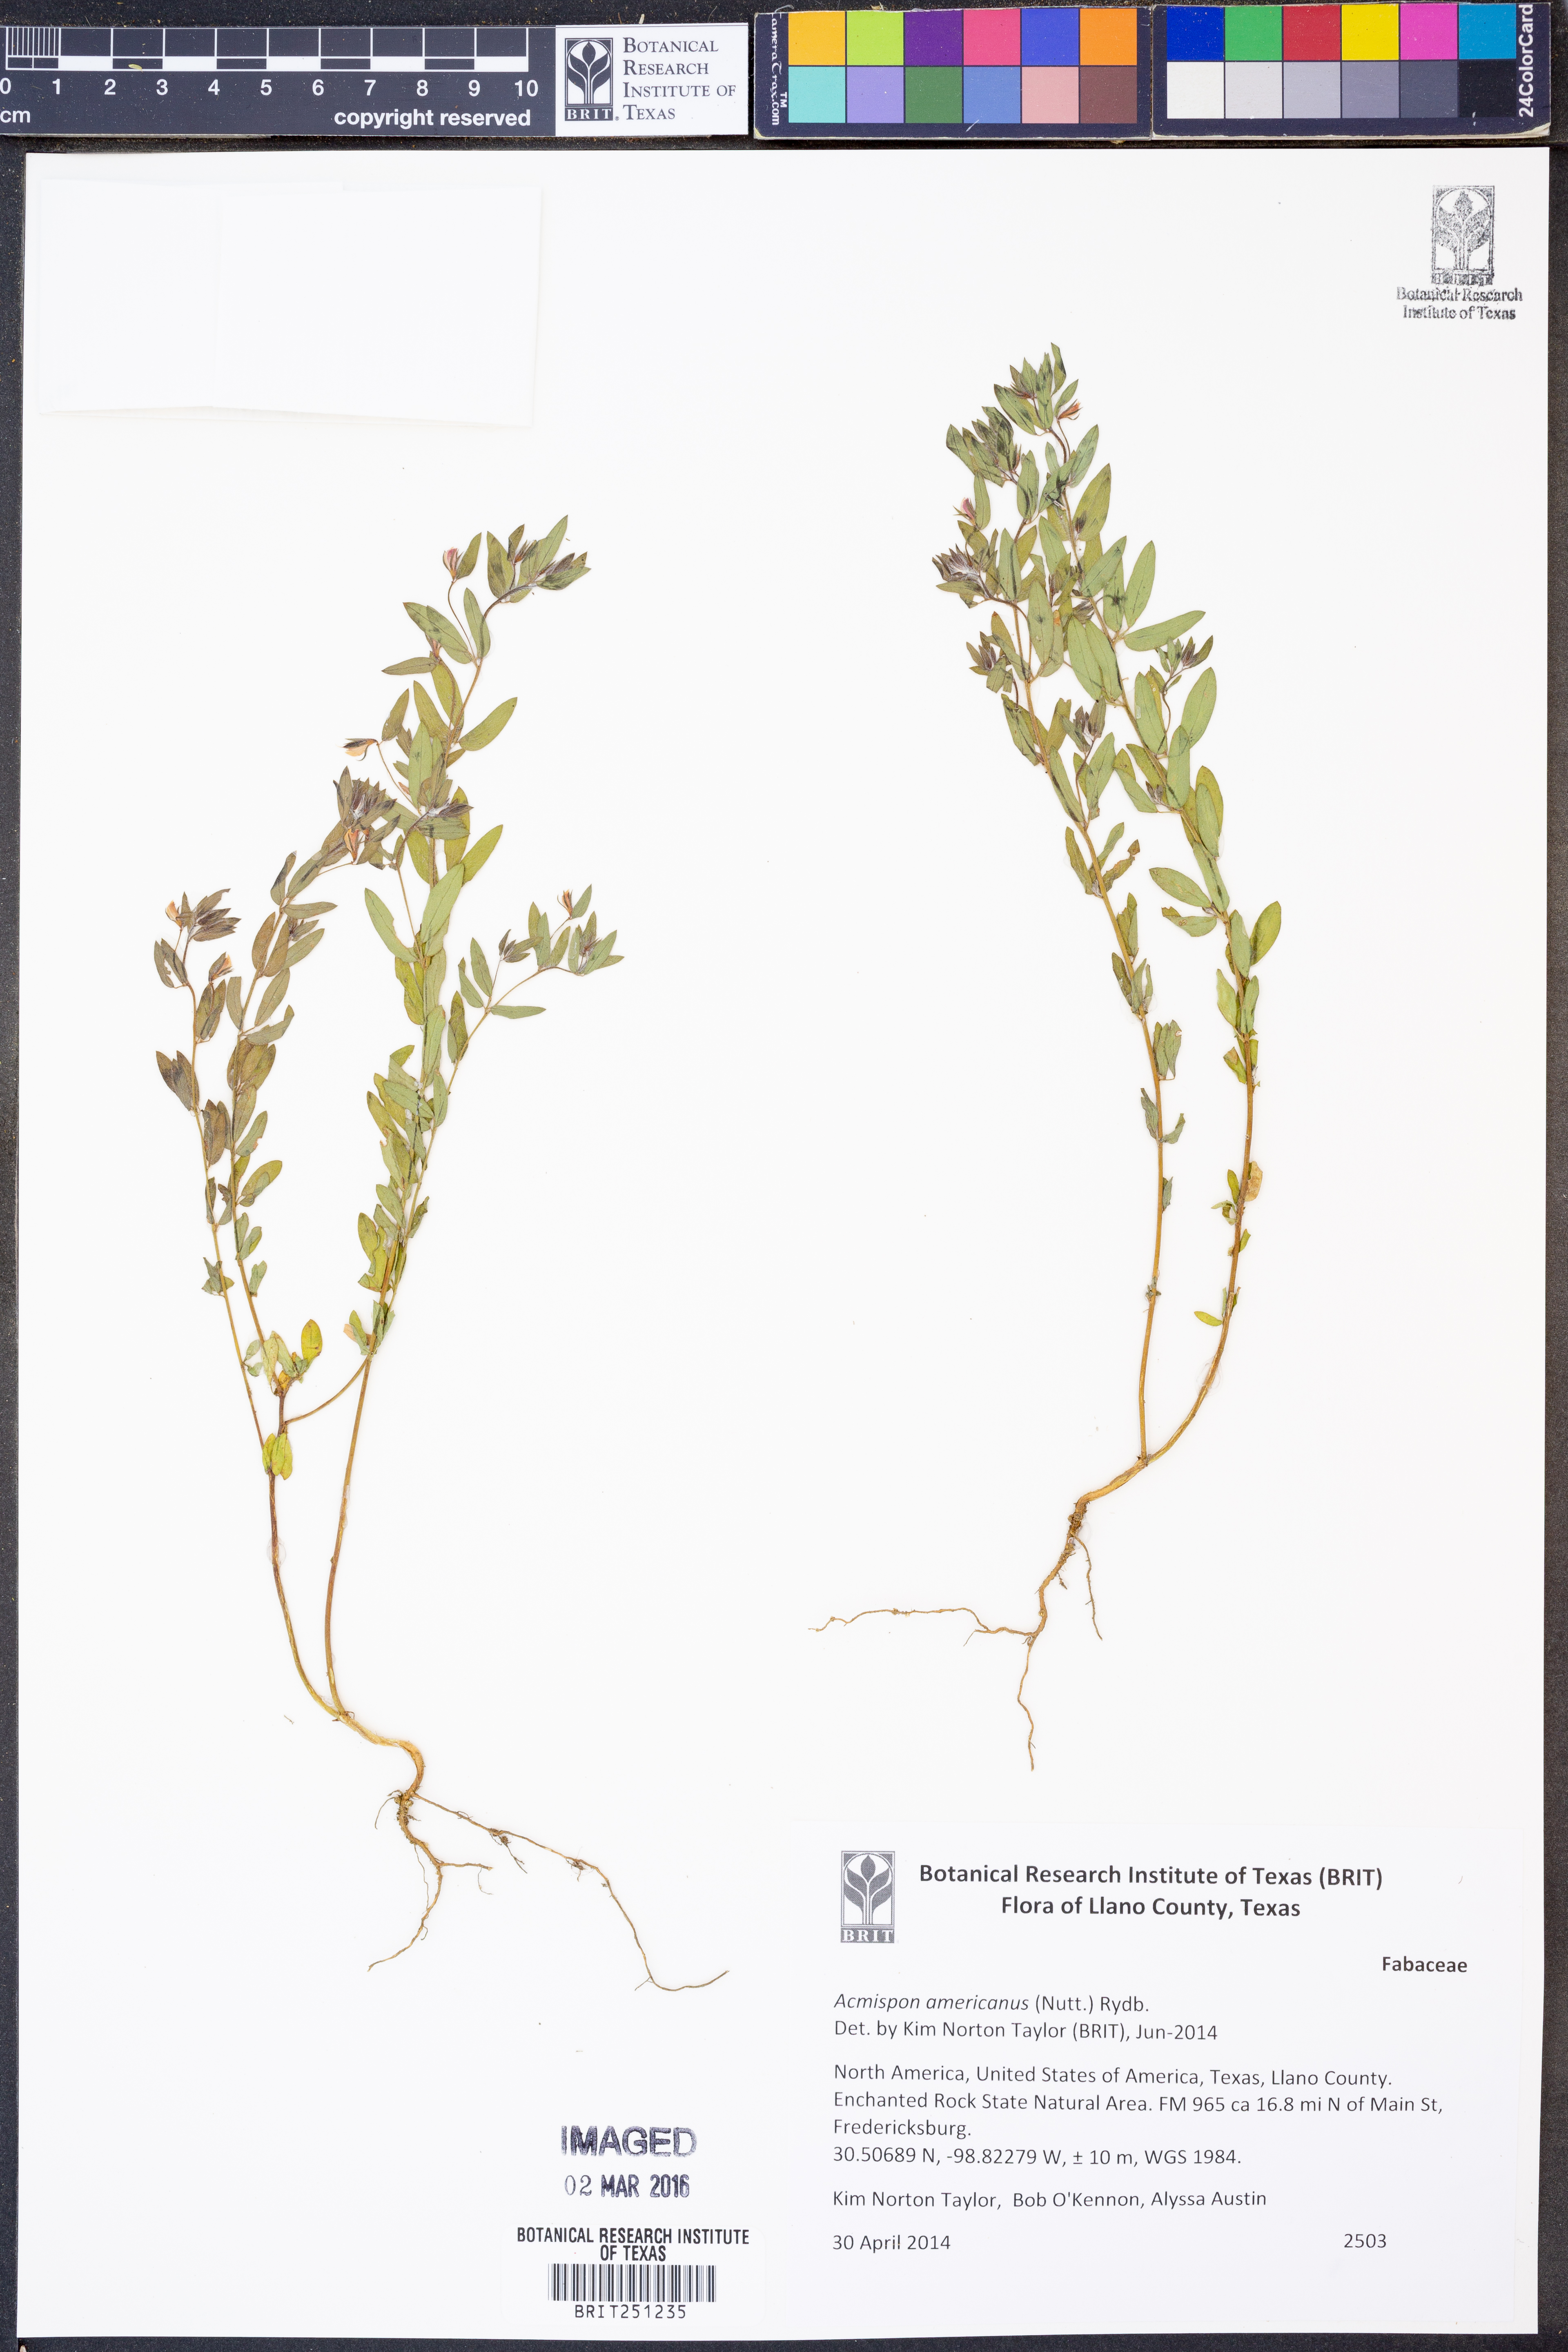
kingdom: Plantae
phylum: Tracheophyta
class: Magnoliopsida
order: Fabales
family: Fabaceae
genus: Acmispon
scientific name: Acmispon americanus
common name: American bird's-foot trefoil
